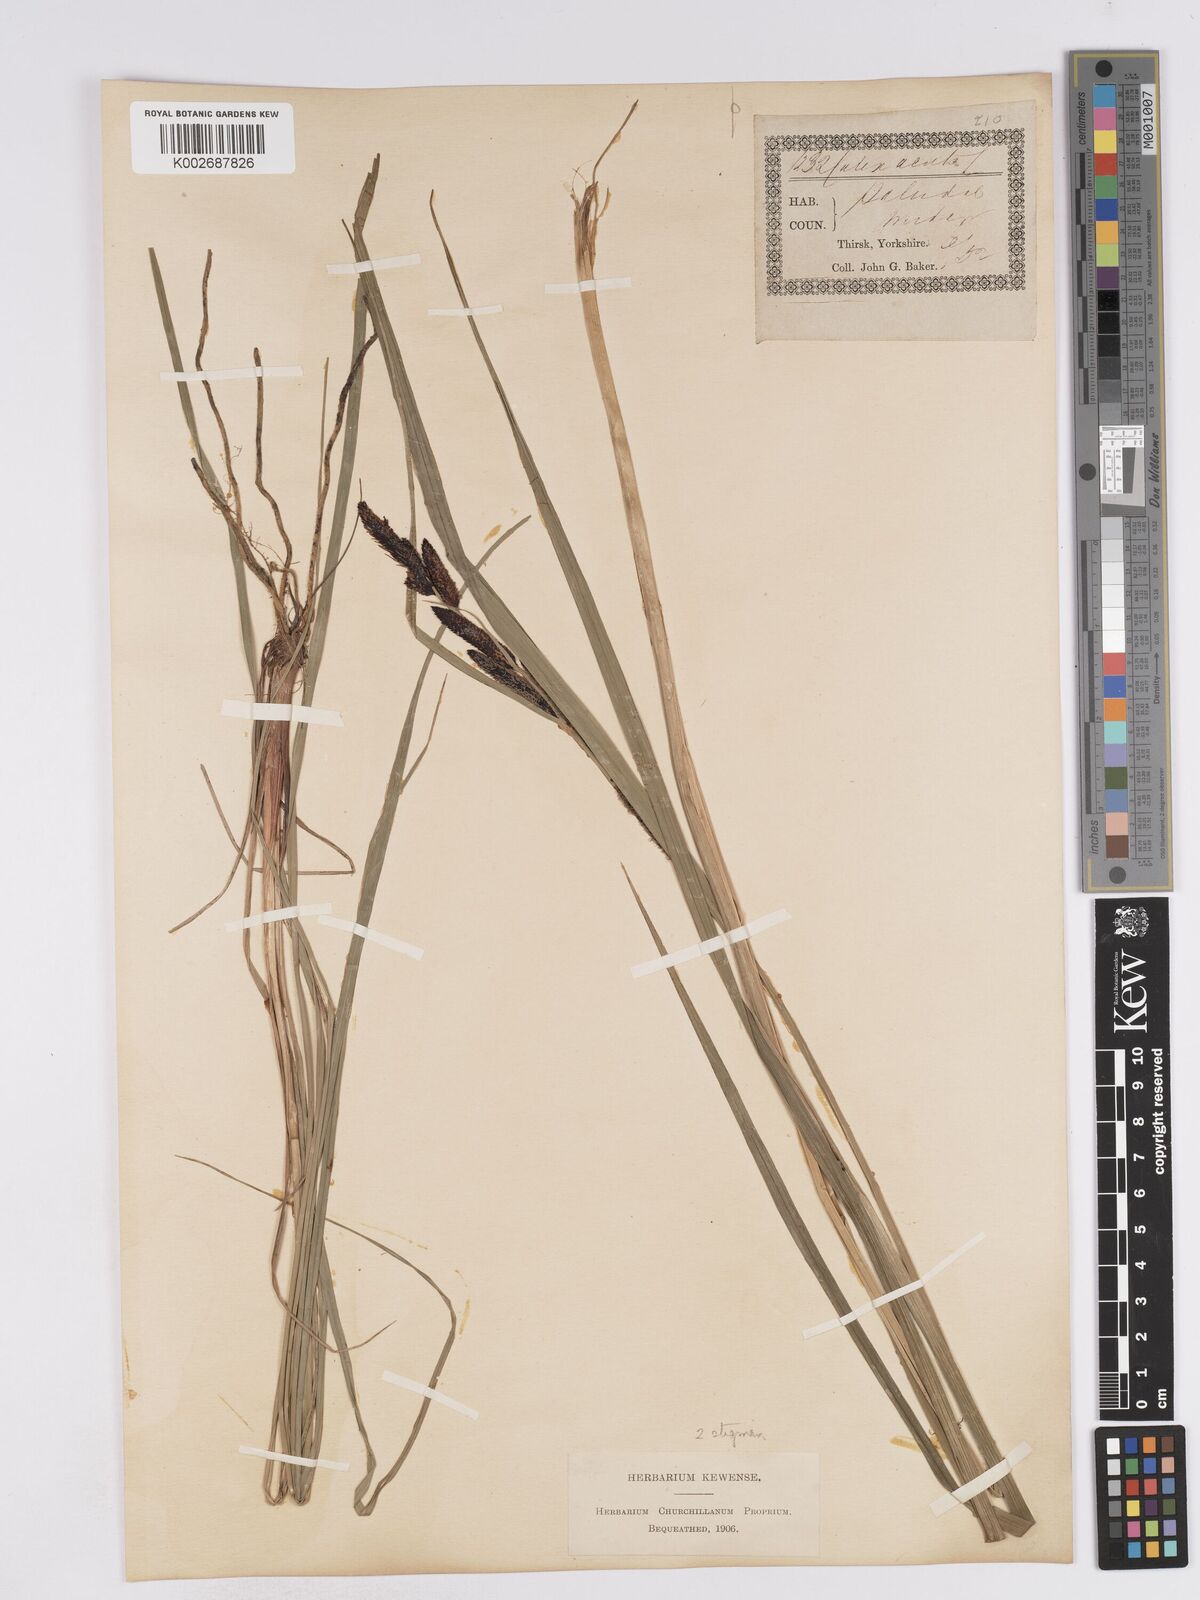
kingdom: Plantae
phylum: Tracheophyta
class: Liliopsida
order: Poales
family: Cyperaceae
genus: Carex
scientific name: Carex acuta
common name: Slender tufted-sedge
